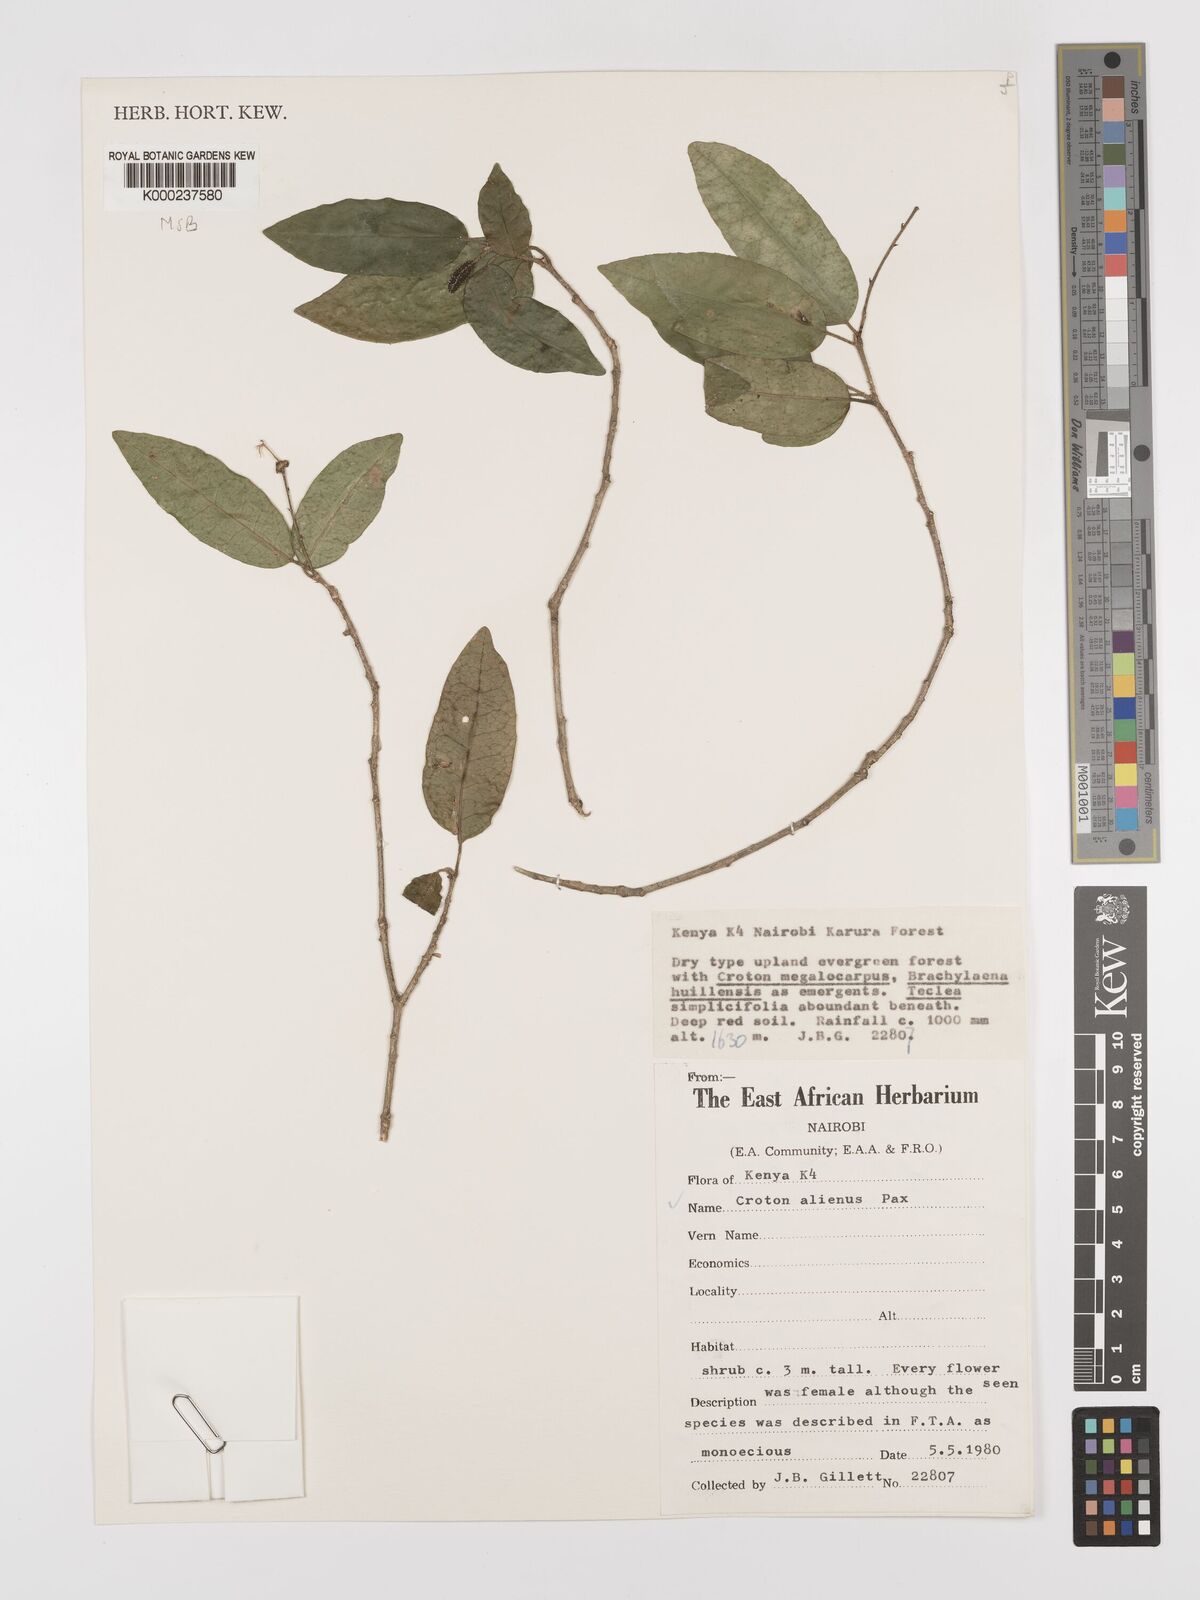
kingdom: Plantae
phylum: Tracheophyta
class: Magnoliopsida
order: Malpighiales
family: Euphorbiaceae
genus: Croton
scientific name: Croton alienus
